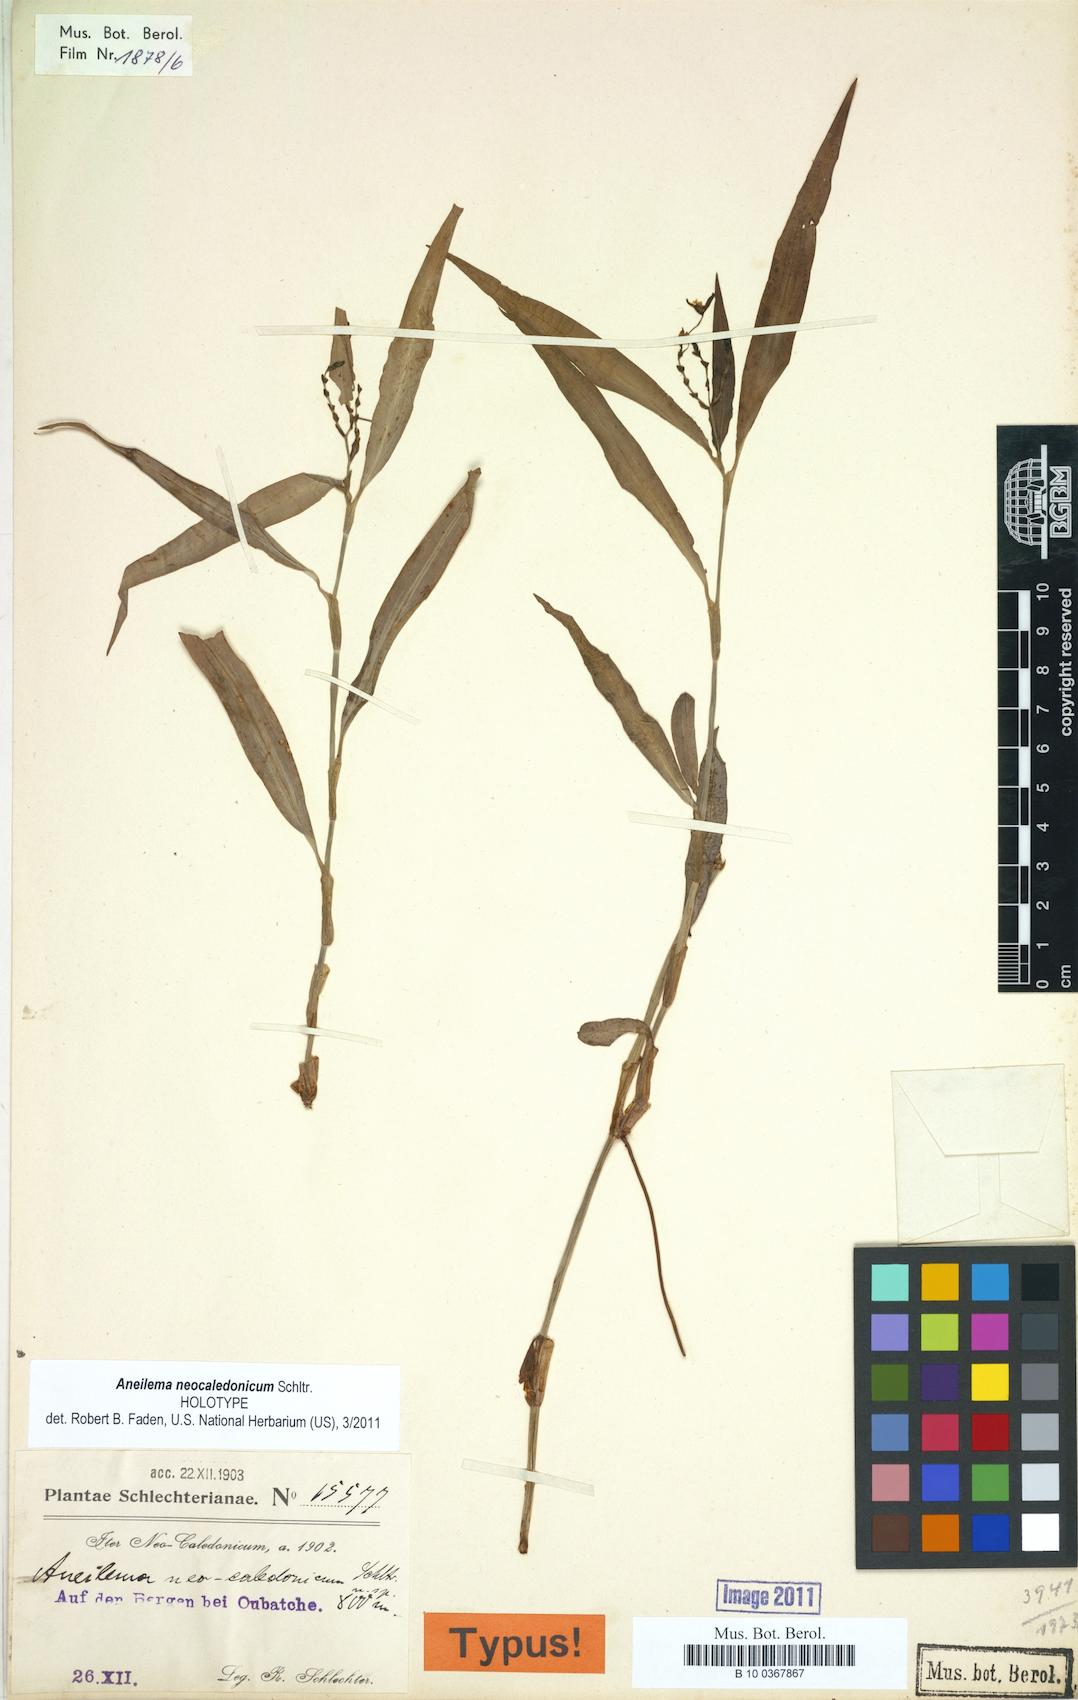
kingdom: Plantae
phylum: Tracheophyta
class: Liliopsida
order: Commelinales
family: Commelinaceae
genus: Aneilema
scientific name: Aneilema neocaledonicum
